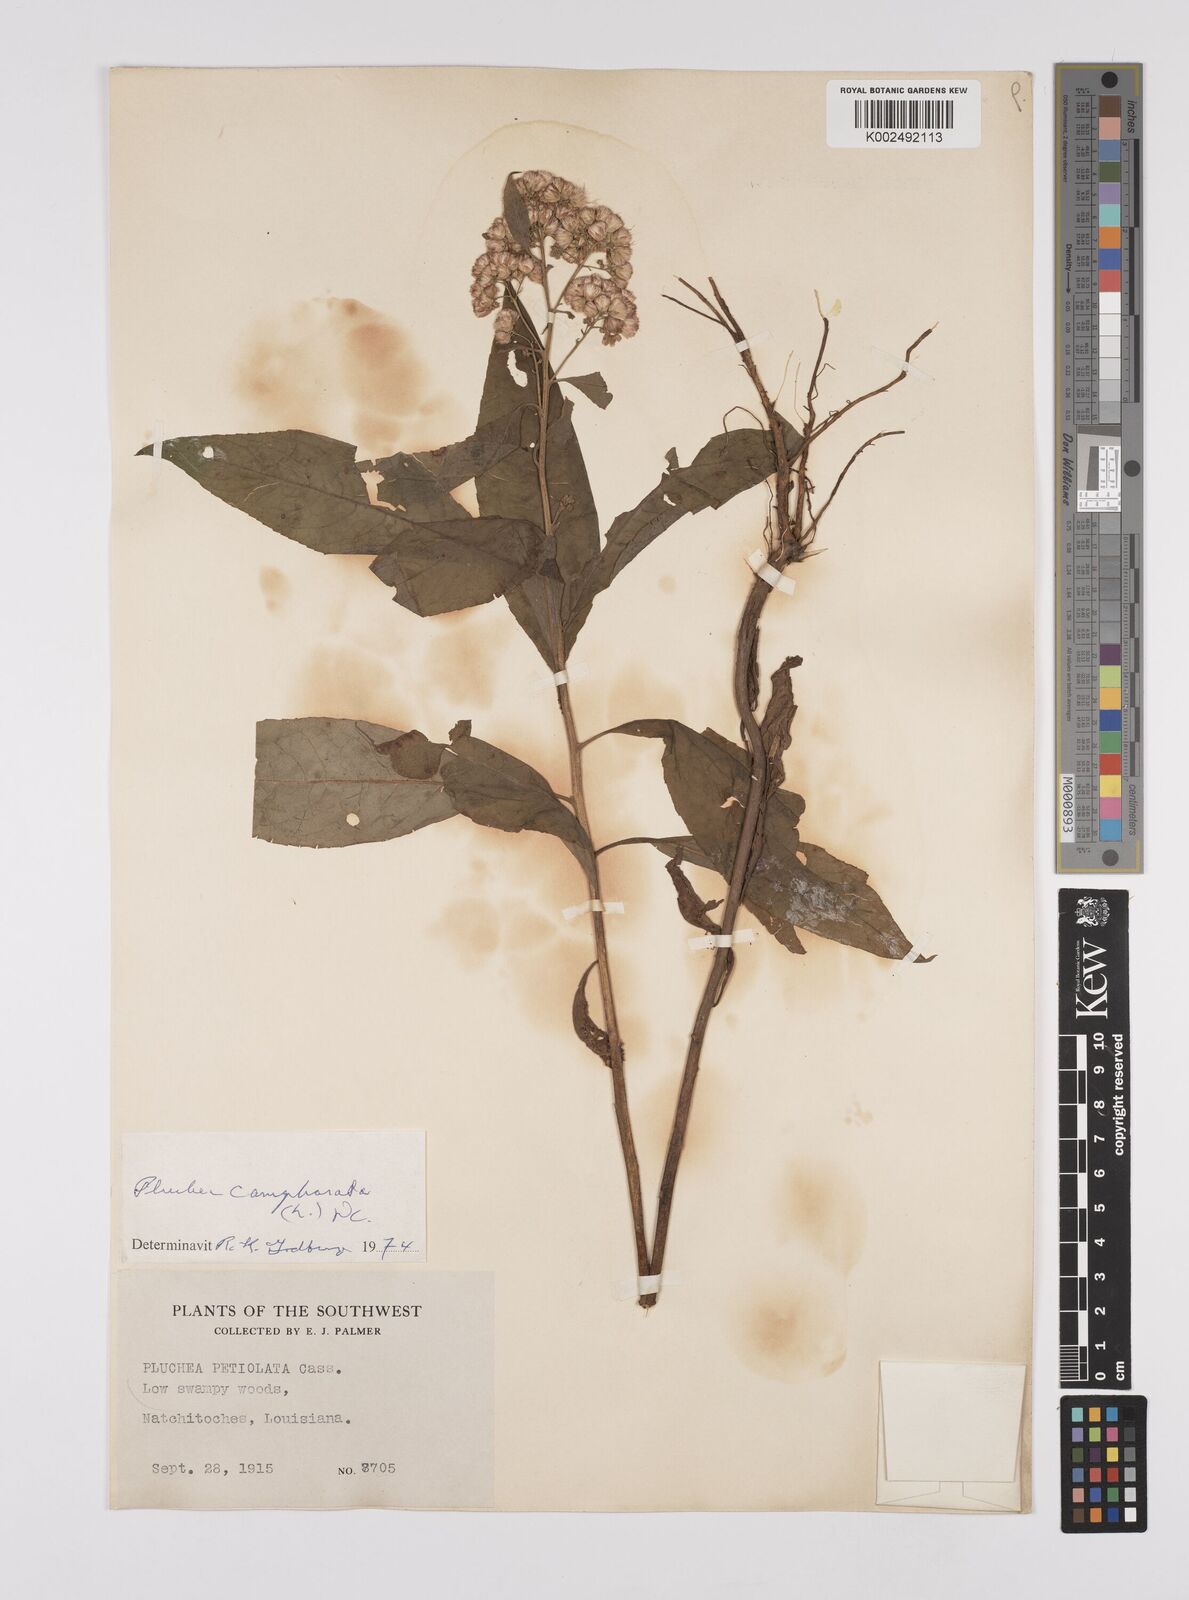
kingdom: Plantae
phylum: Tracheophyta
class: Magnoliopsida
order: Asterales
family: Asteraceae
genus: Pluchea
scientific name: Pluchea camphorata
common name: Camphor pluchea
